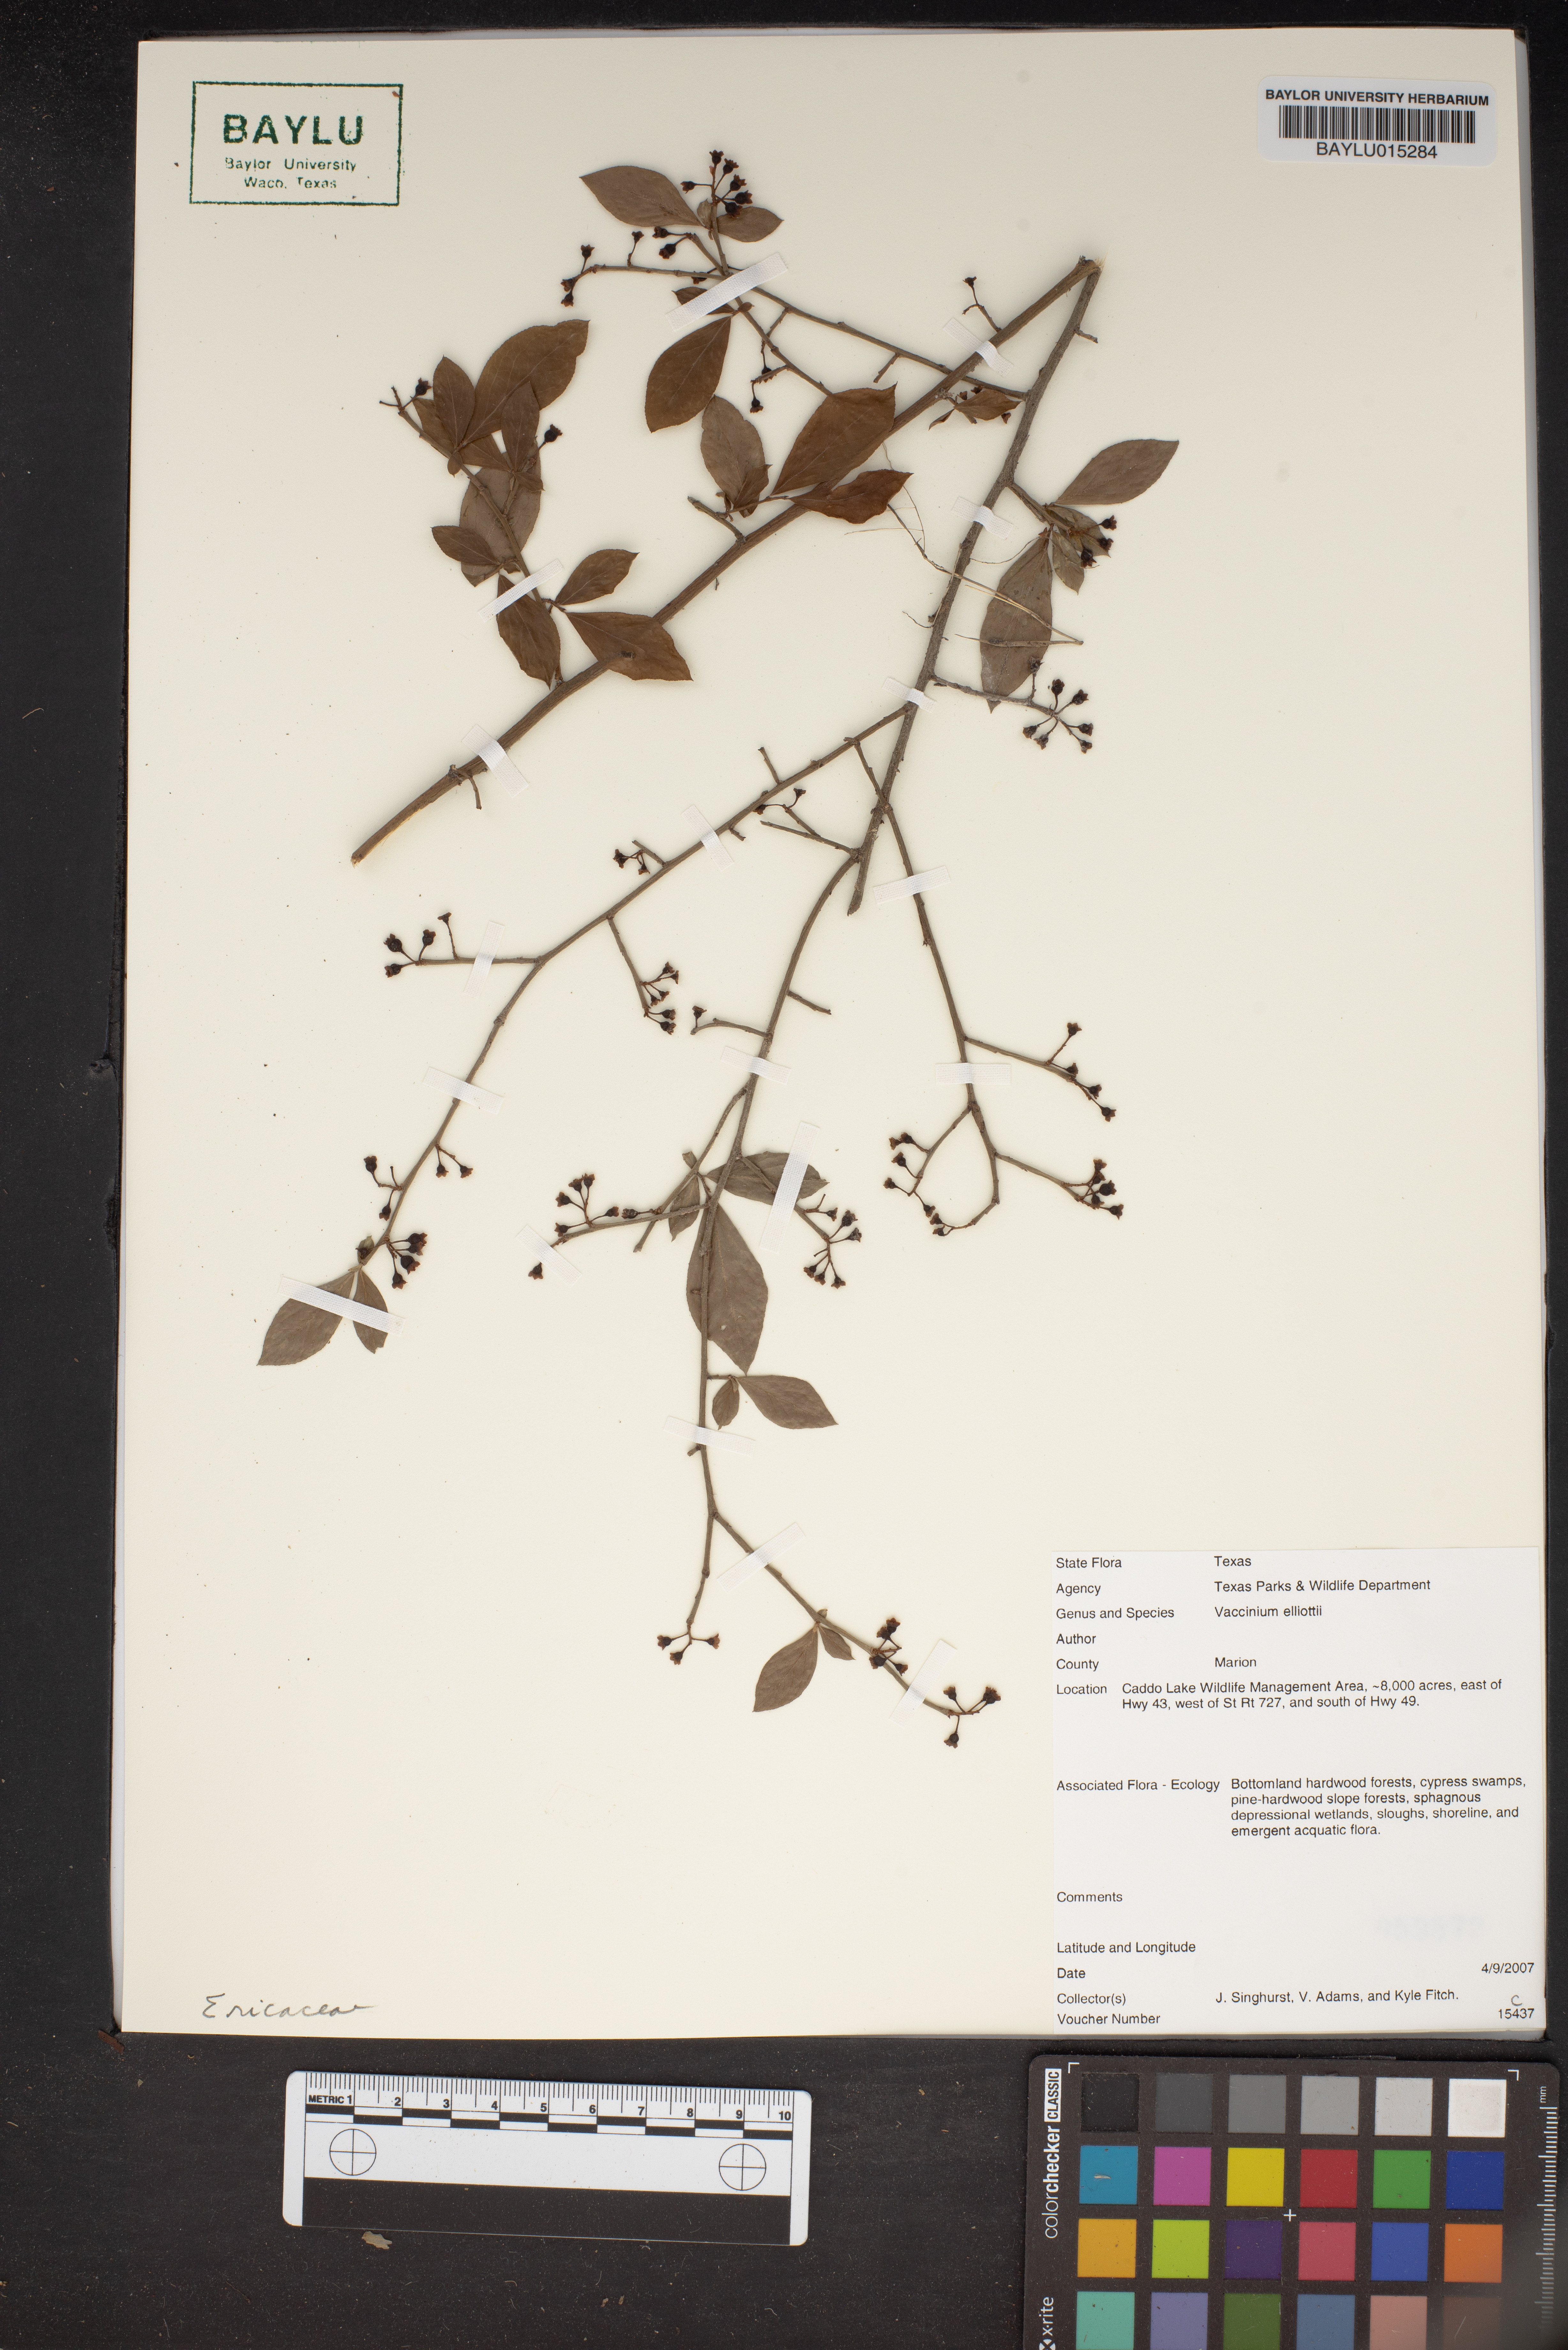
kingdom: Plantae
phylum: Tracheophyta
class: Magnoliopsida
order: Ericales
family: Ericaceae
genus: Vaccinium
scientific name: Vaccinium corymbosum
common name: Blueberry
